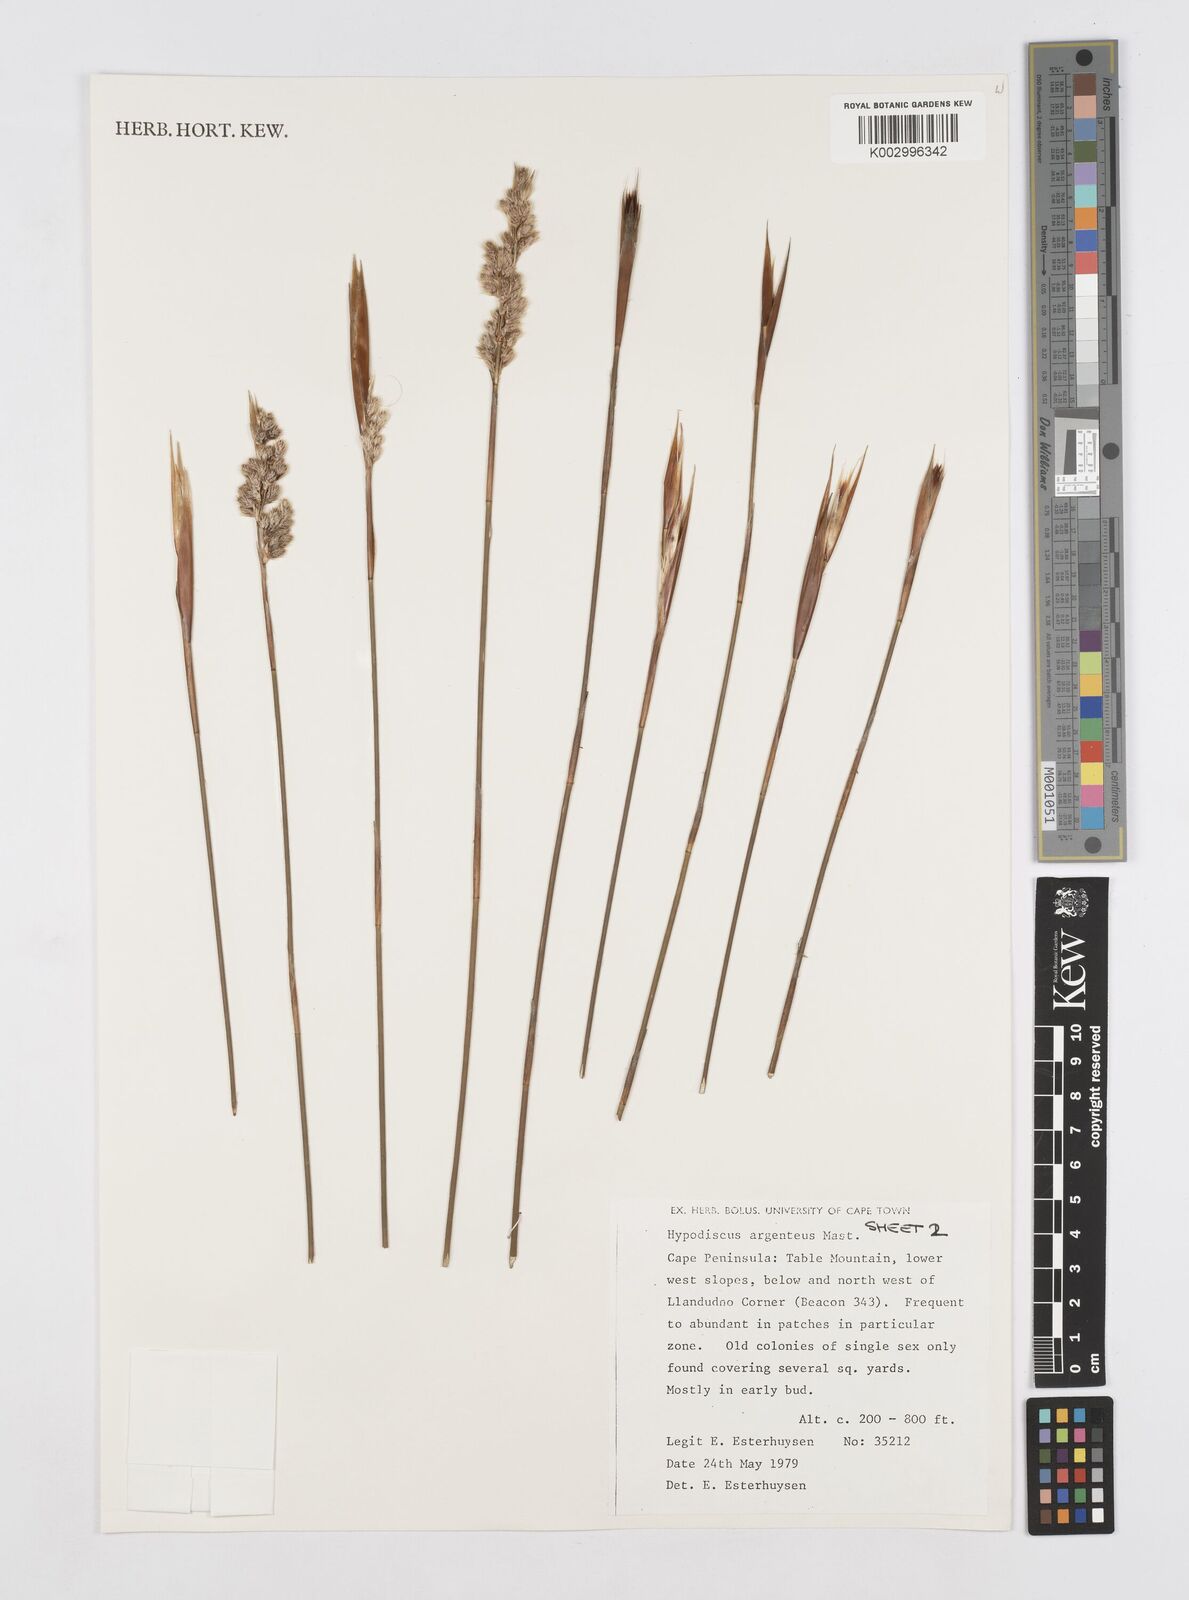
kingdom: Plantae
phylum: Tracheophyta
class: Liliopsida
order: Poales
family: Restionaceae
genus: Hypodiscus
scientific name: Hypodiscus argenteus
